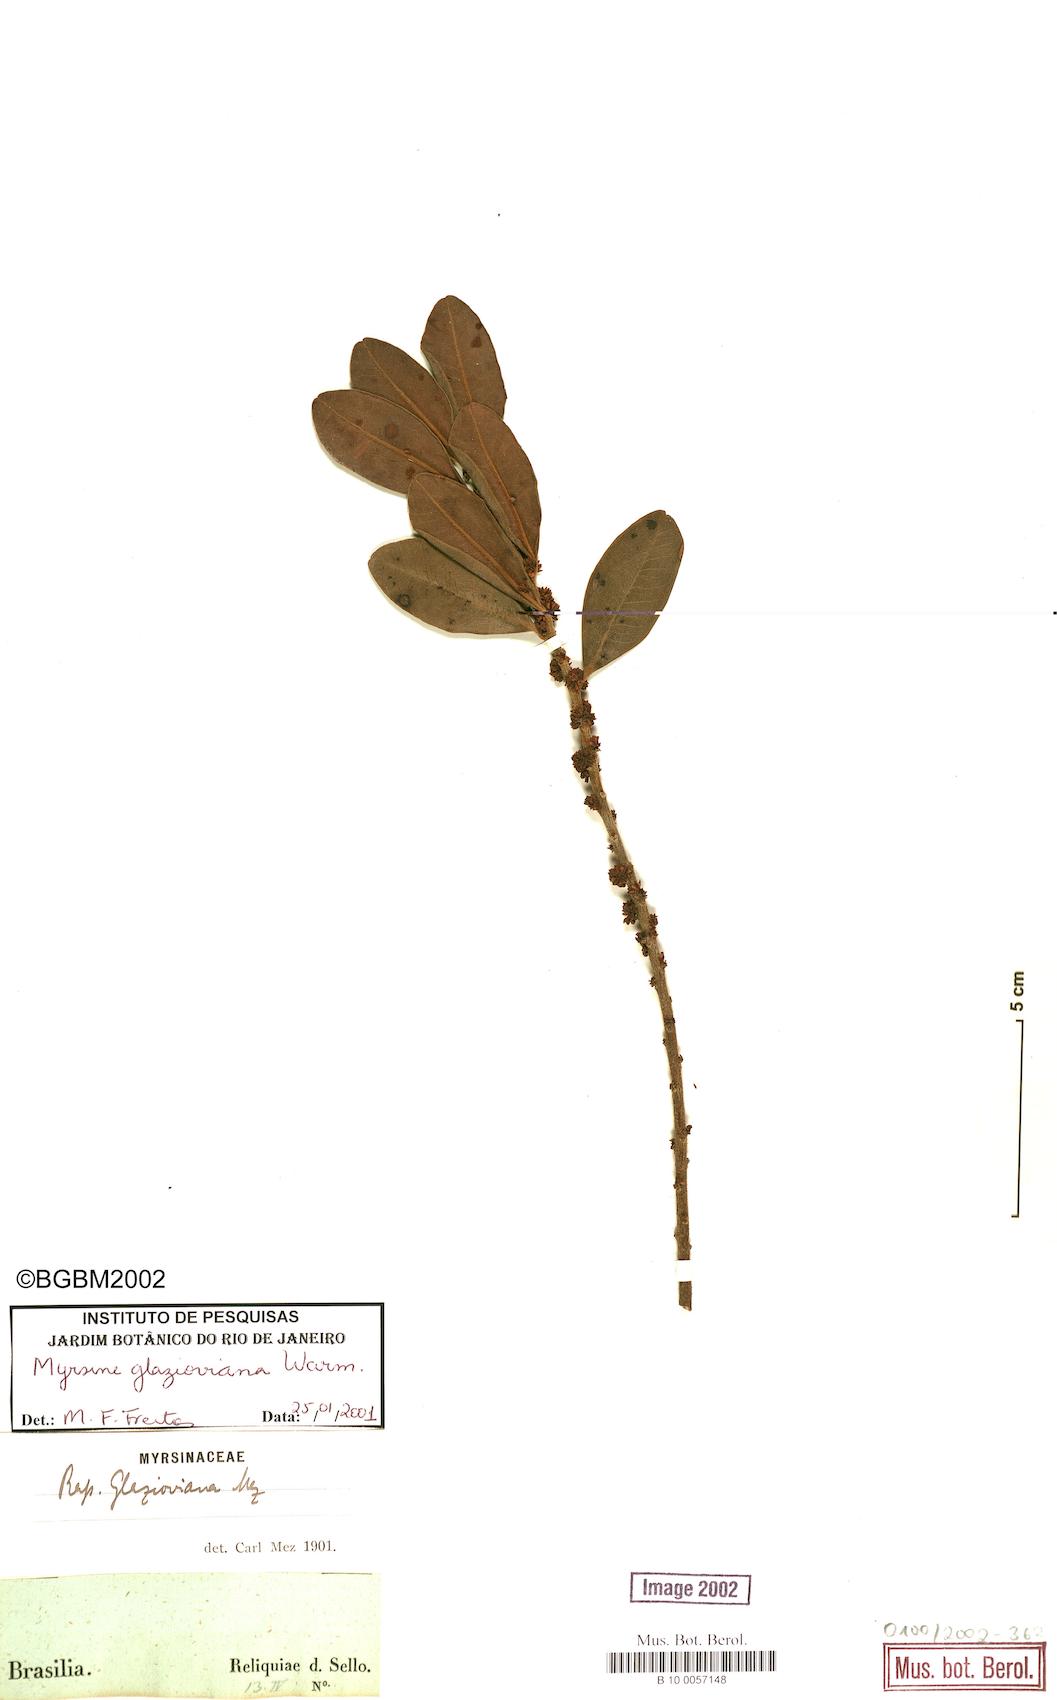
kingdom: Plantae
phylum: Tracheophyta
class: Magnoliopsida
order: Ericales
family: Primulaceae
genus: Myrsine
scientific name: Myrsine glazioviana
